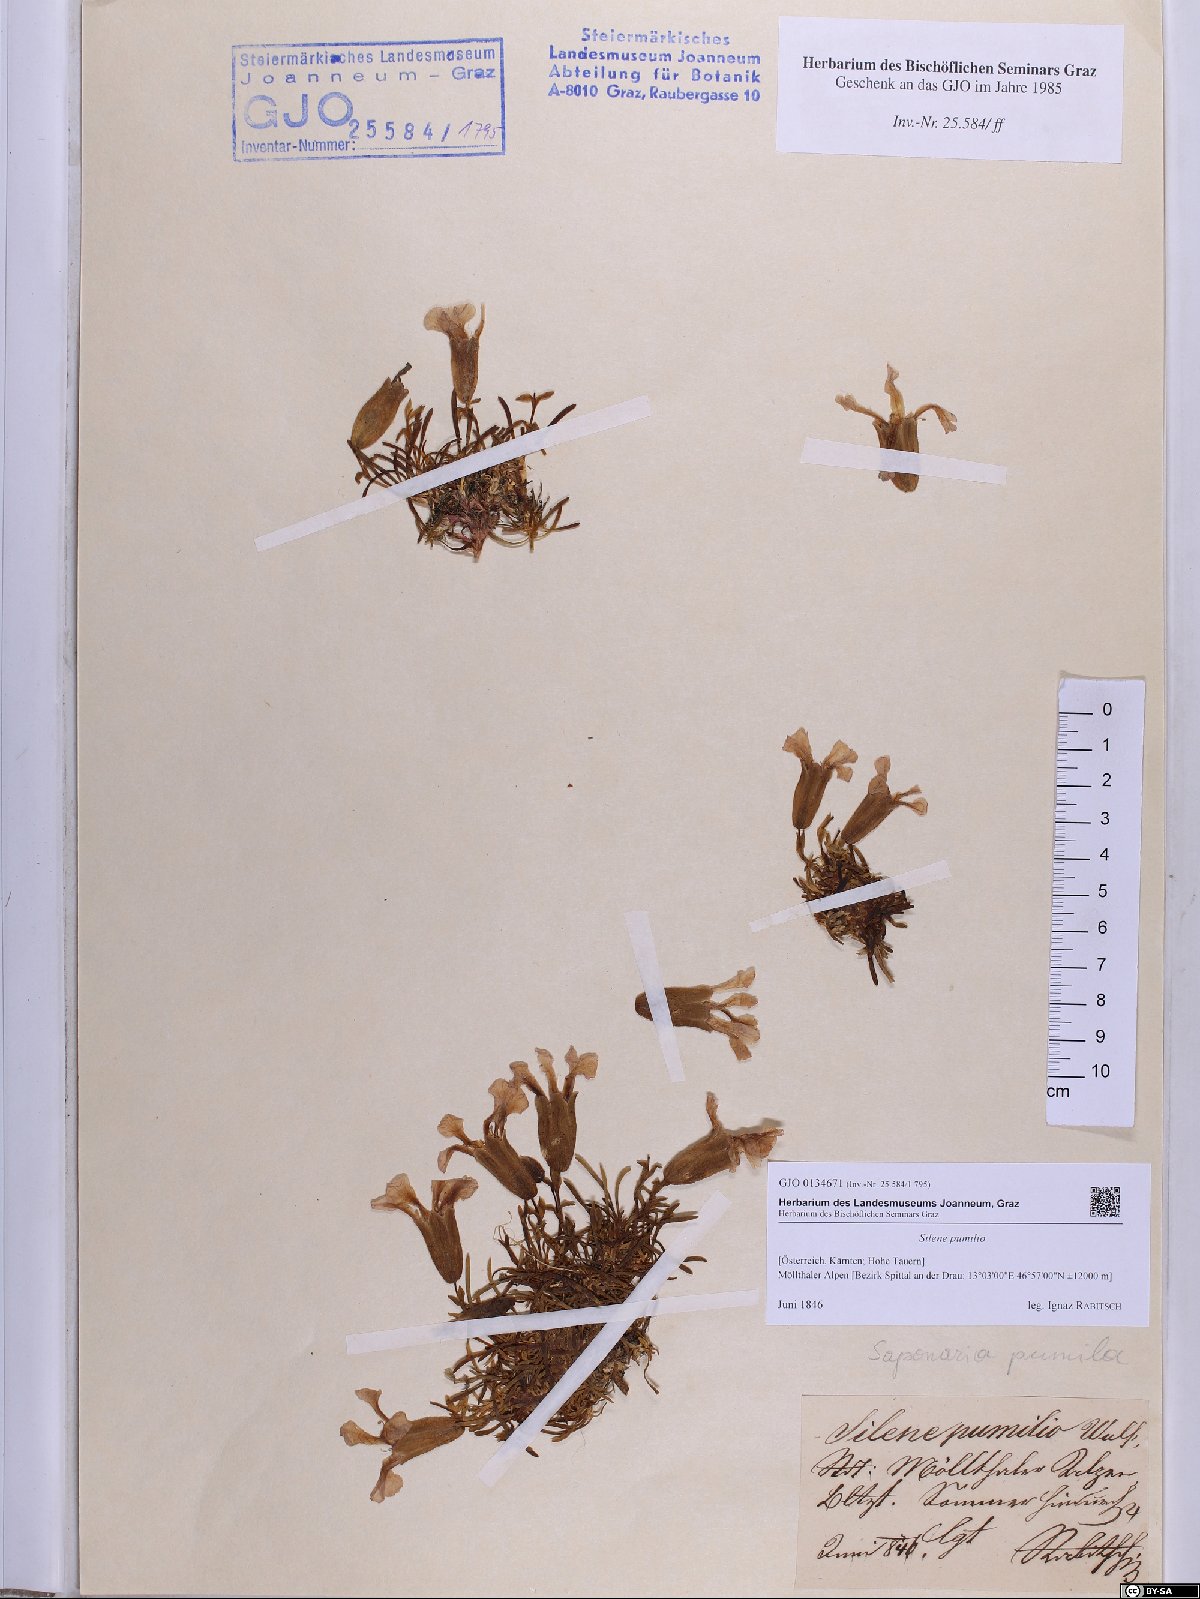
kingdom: Plantae
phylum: Tracheophyta
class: Magnoliopsida
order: Caryophyllales
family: Caryophyllaceae
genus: Saponaria
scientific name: Saponaria pumila
